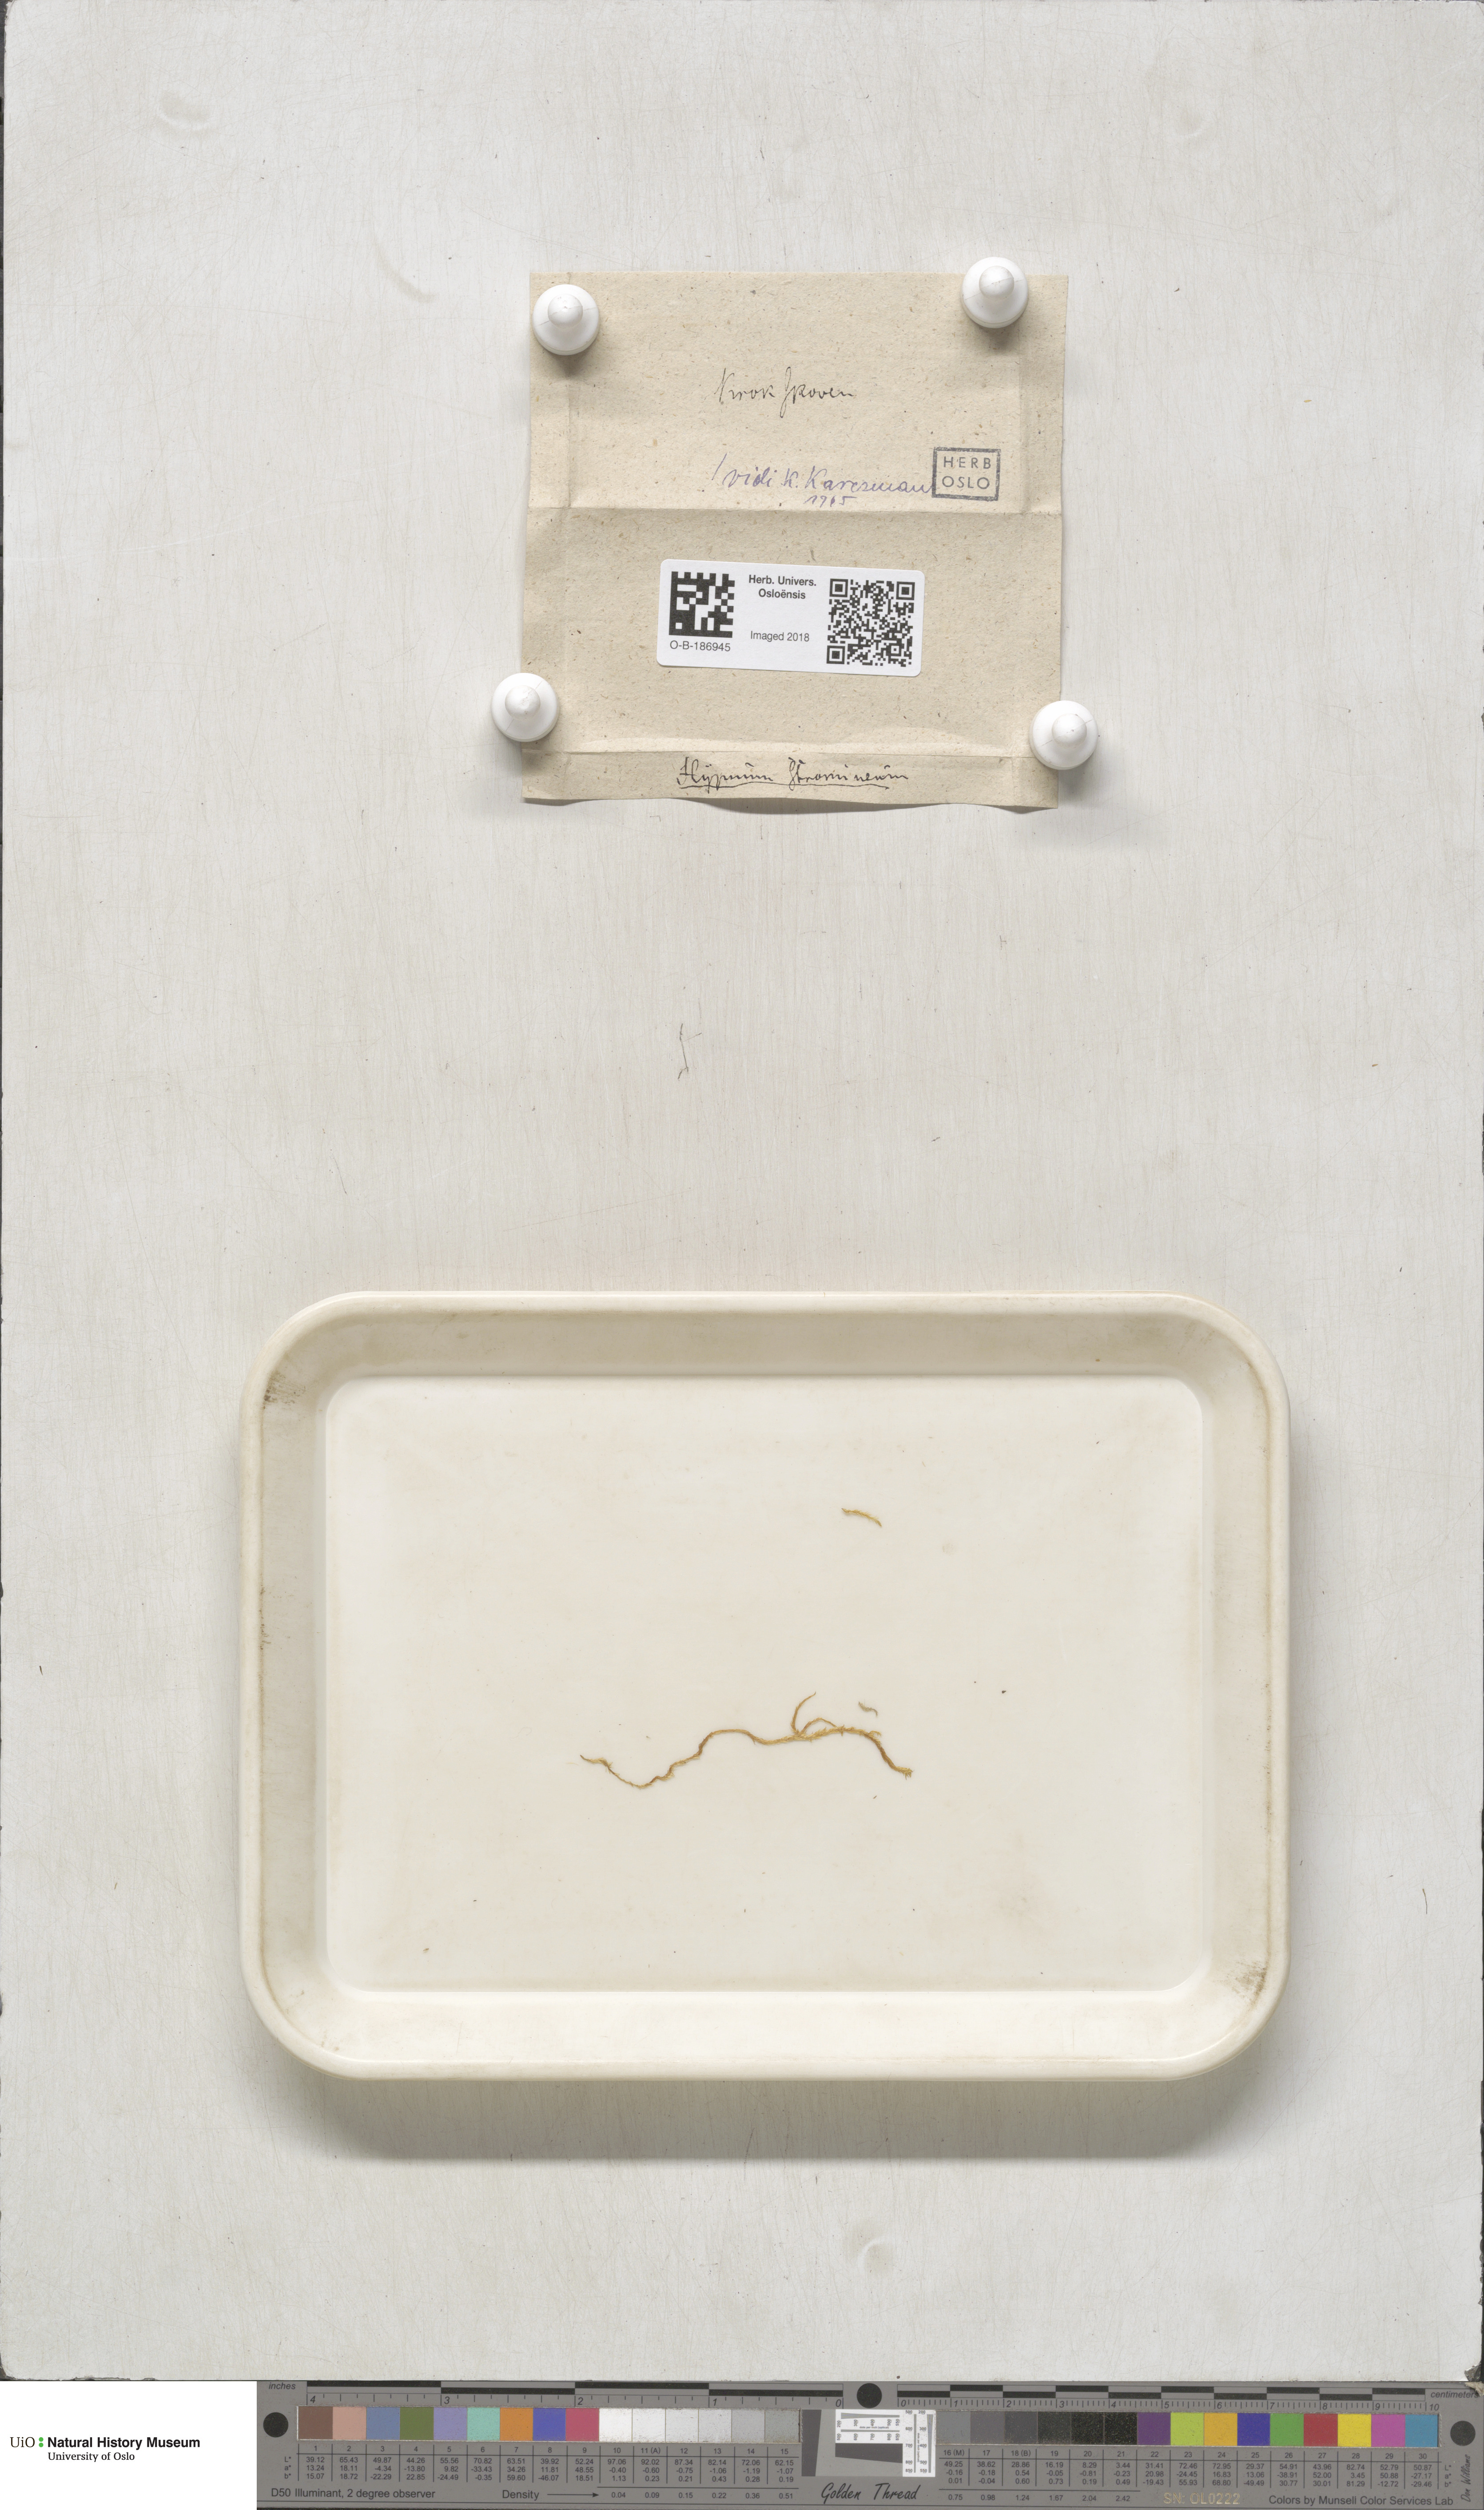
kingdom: Plantae
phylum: Bryophyta
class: Bryopsida
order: Hypnales
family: Calliergonaceae
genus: Straminergon
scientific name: Straminergon stramineum
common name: Straw moss
